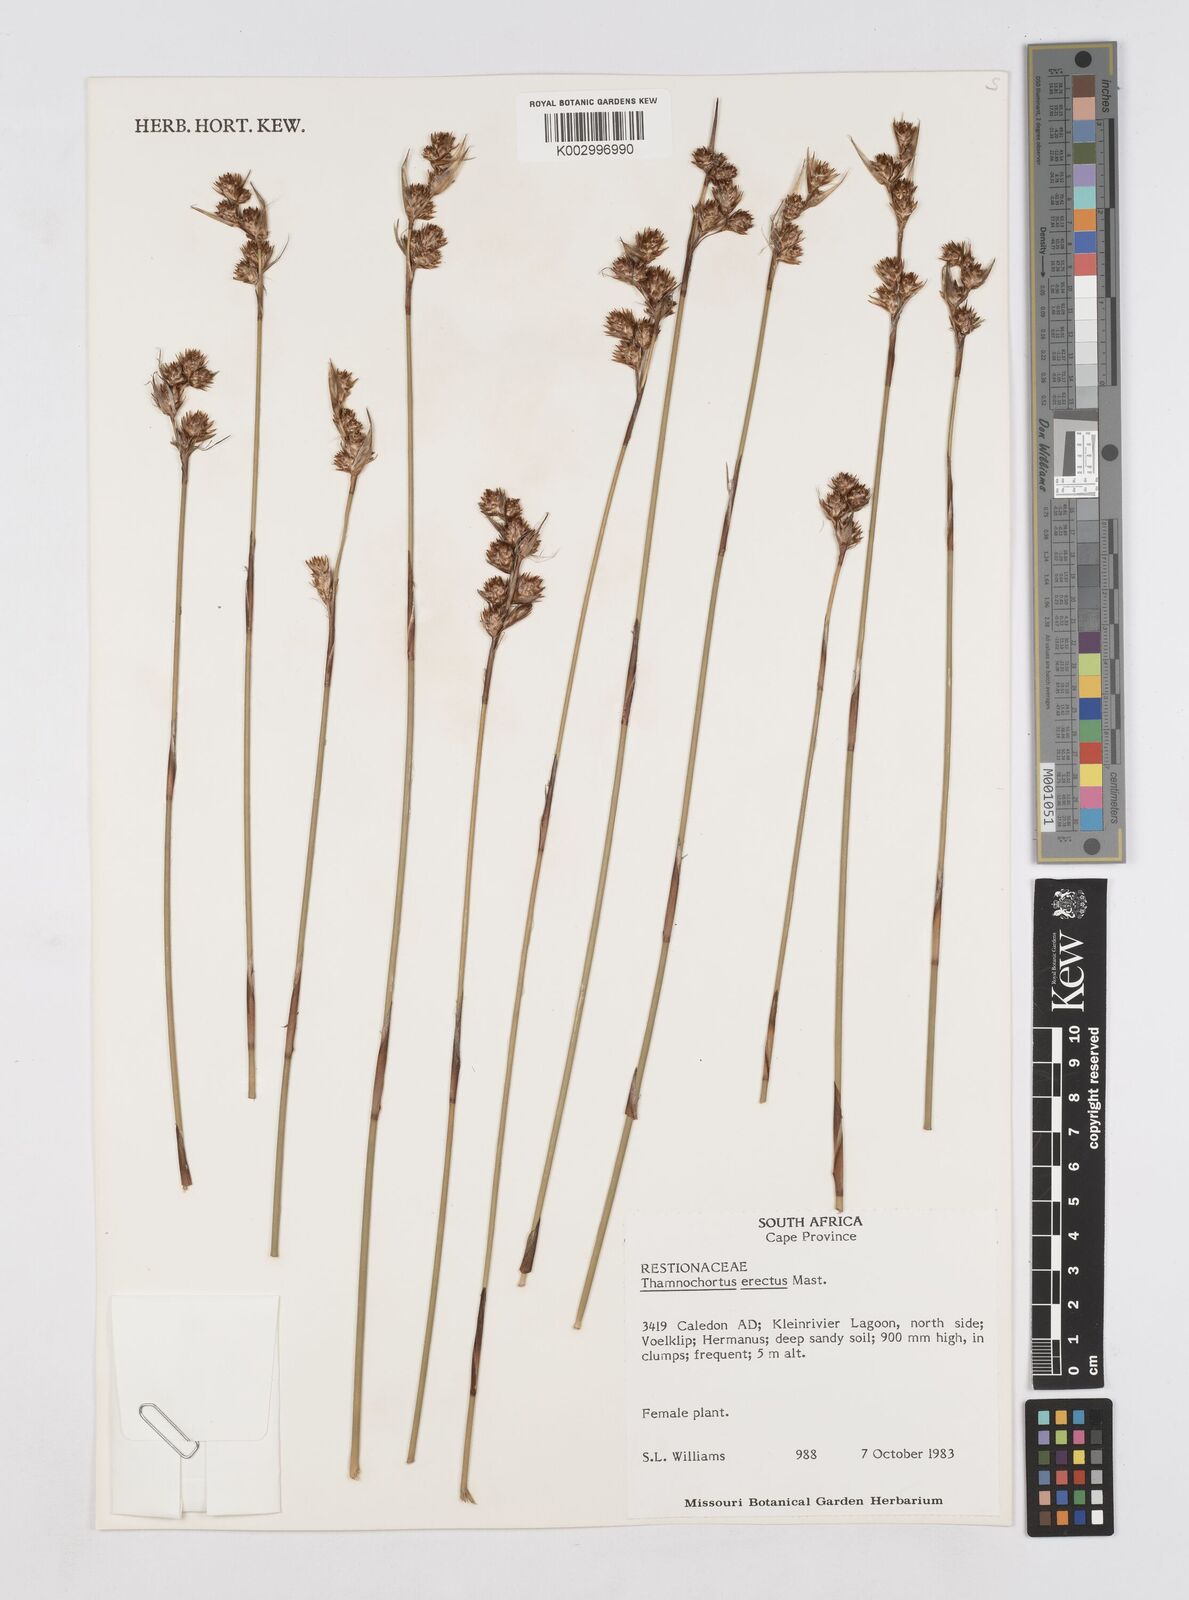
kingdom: Plantae
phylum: Tracheophyta
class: Liliopsida
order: Poales
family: Restionaceae
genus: Thamnochortus
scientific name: Thamnochortus erectus
